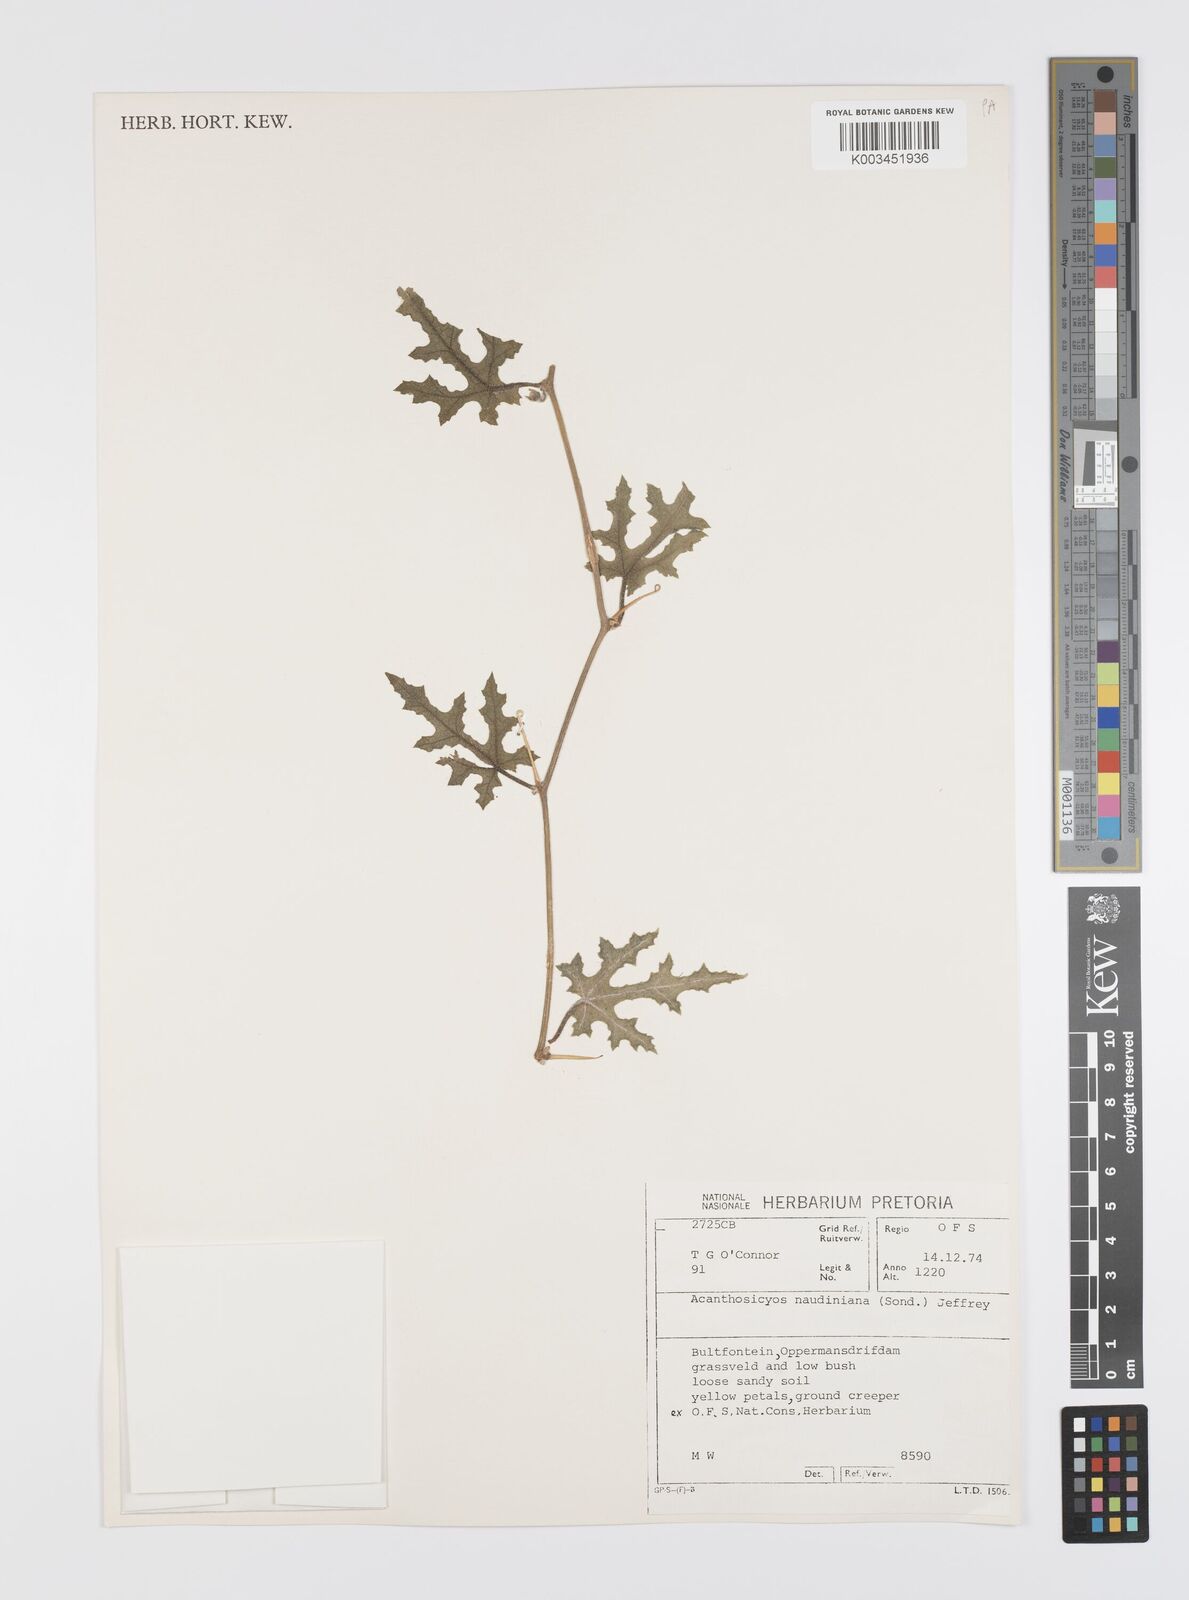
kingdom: Plantae
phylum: Tracheophyta
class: Magnoliopsida
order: Cucurbitales
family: Cucurbitaceae
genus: Citrullus
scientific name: Citrullus naudinianus
